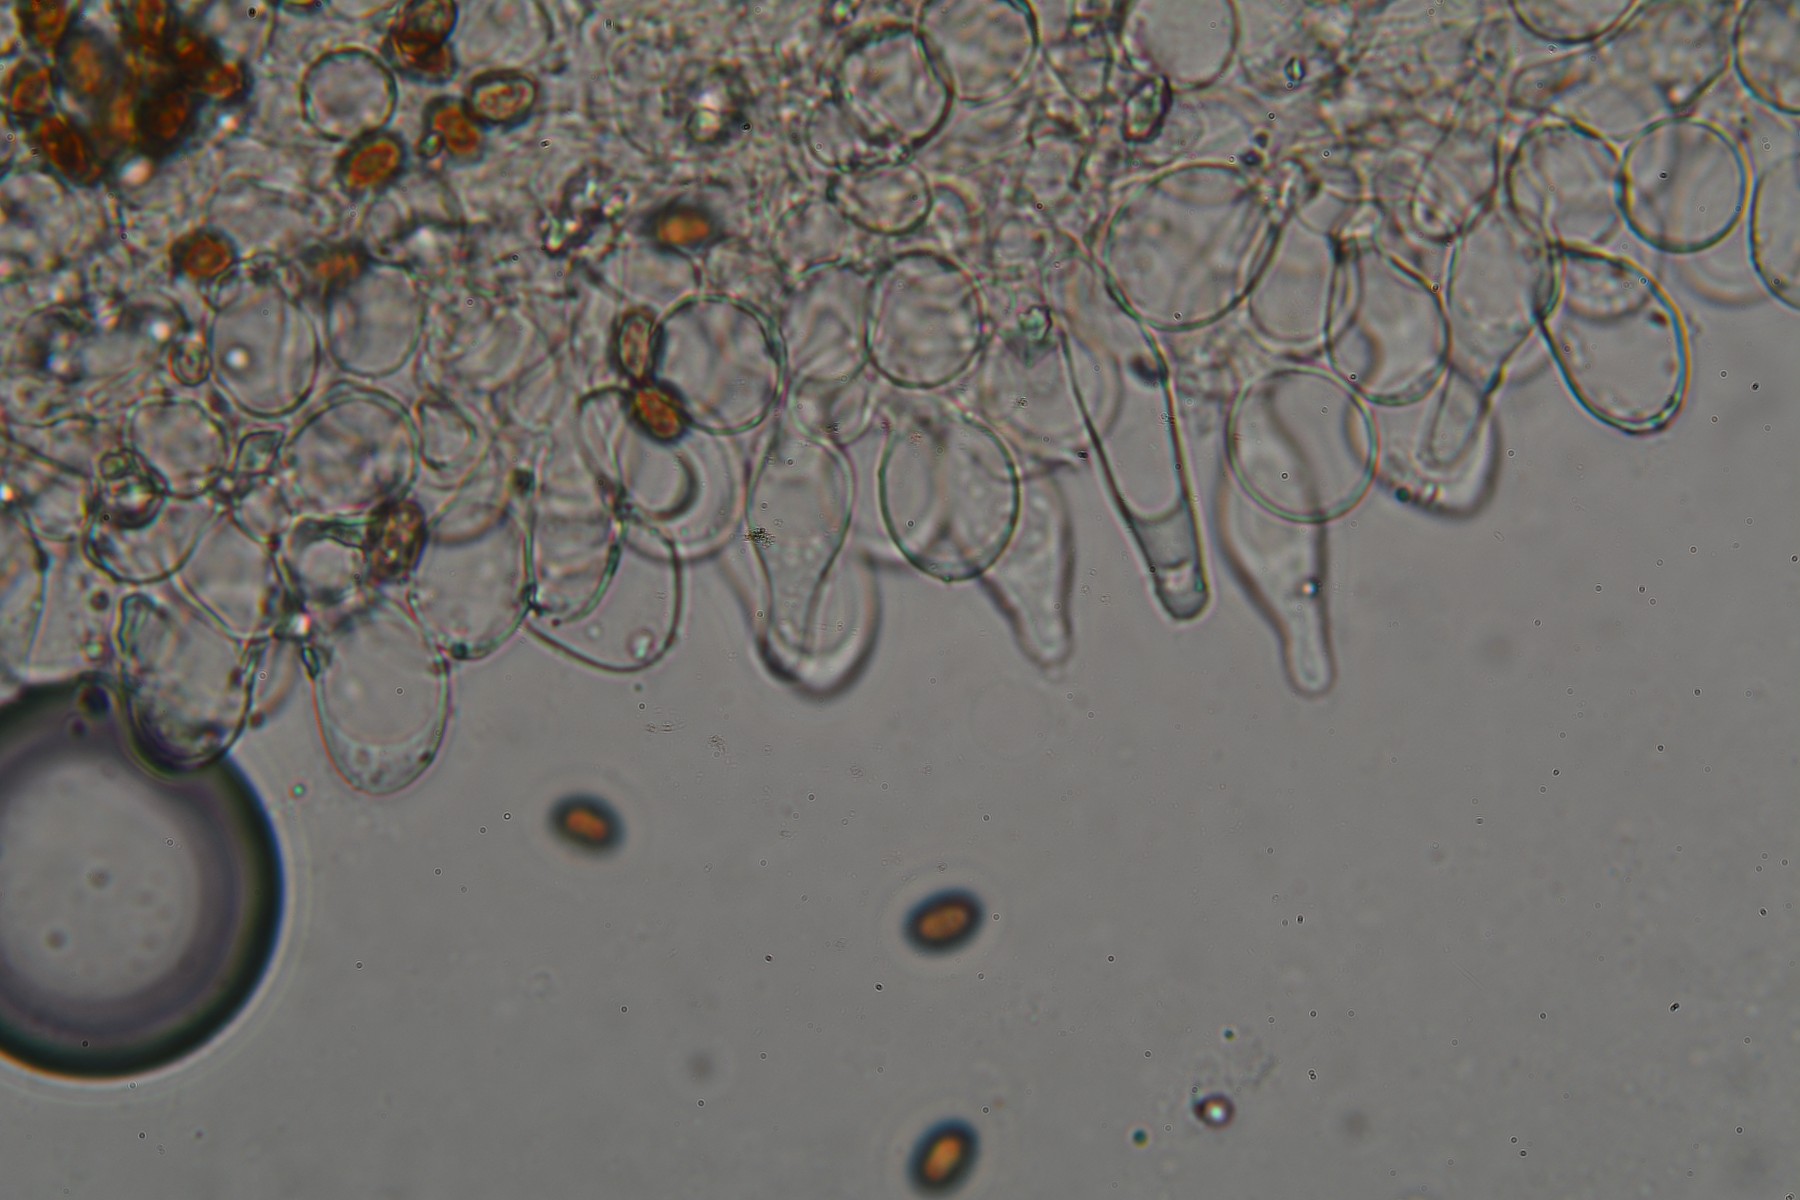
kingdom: Fungi
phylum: Basidiomycota
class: Agaricomycetes
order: Agaricales
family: Psathyrellaceae
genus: Psathyrella
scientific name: Psathyrella obtusata
